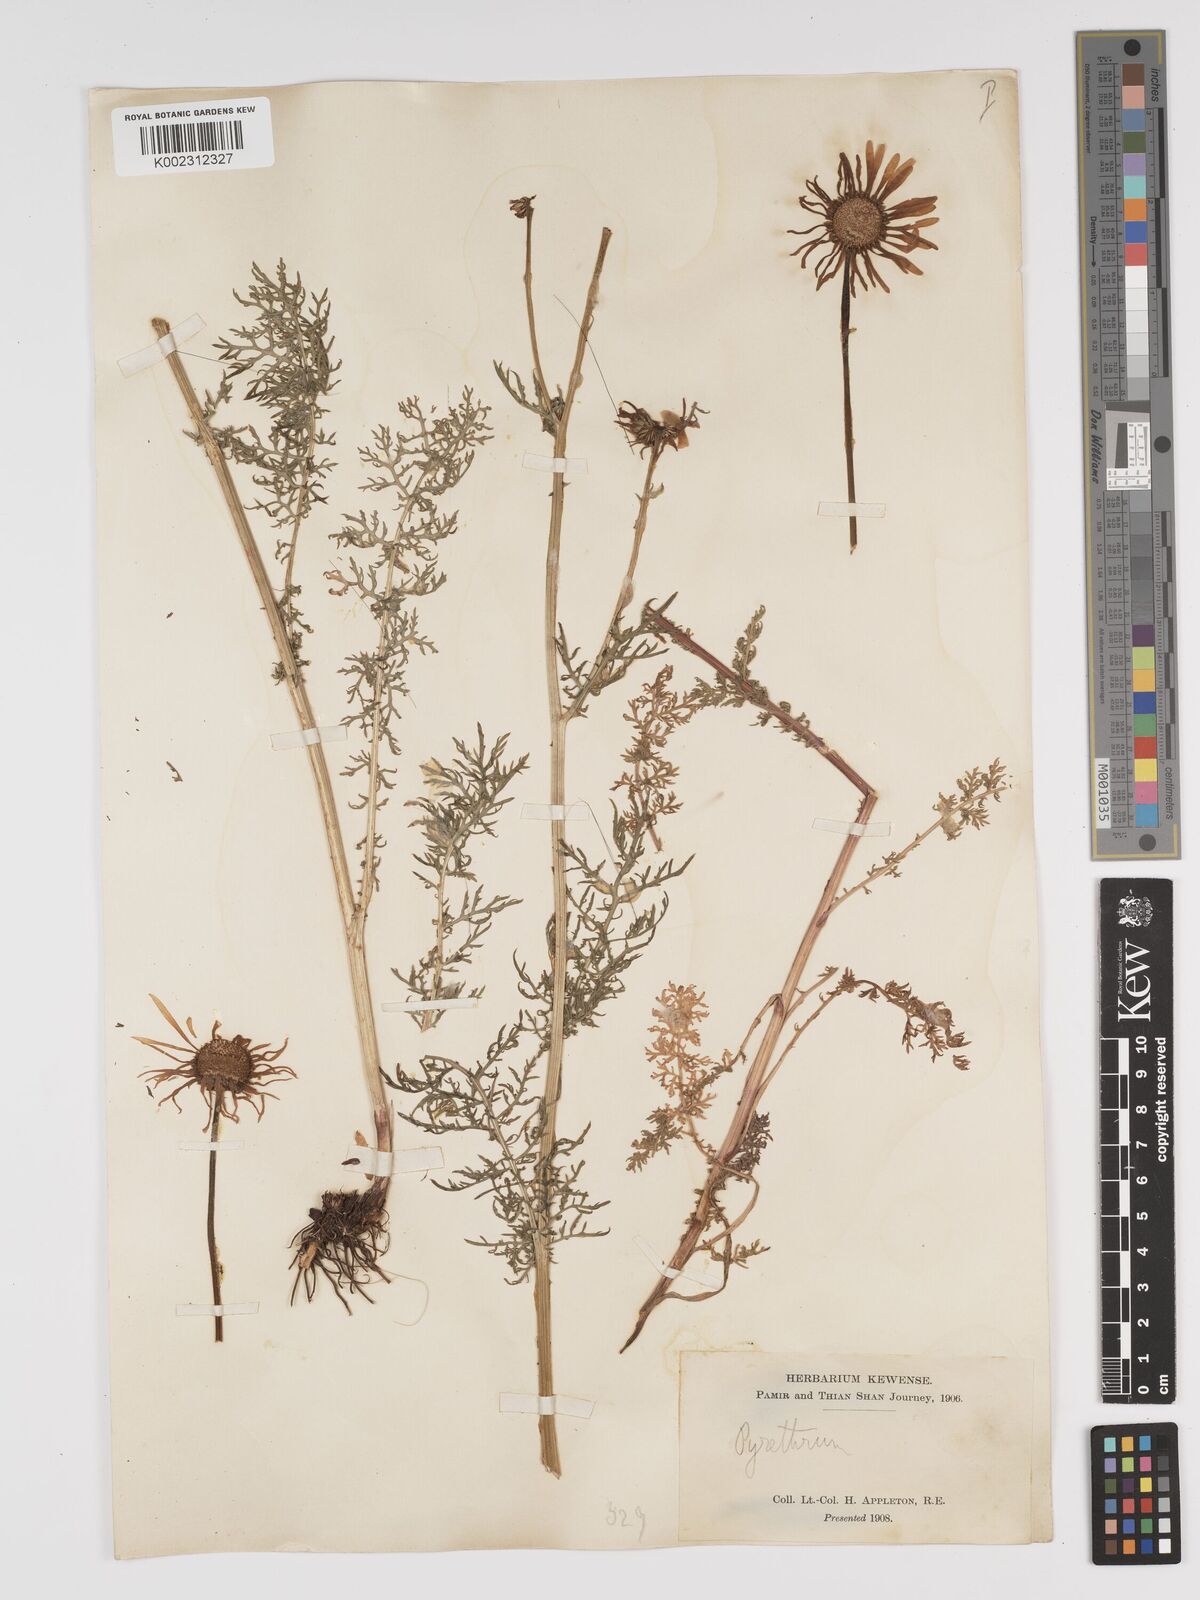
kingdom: Plantae
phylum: Tracheophyta
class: Magnoliopsida
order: Asterales
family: Asteraceae
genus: Tanacetum
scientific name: Tanacetum alatavicum
